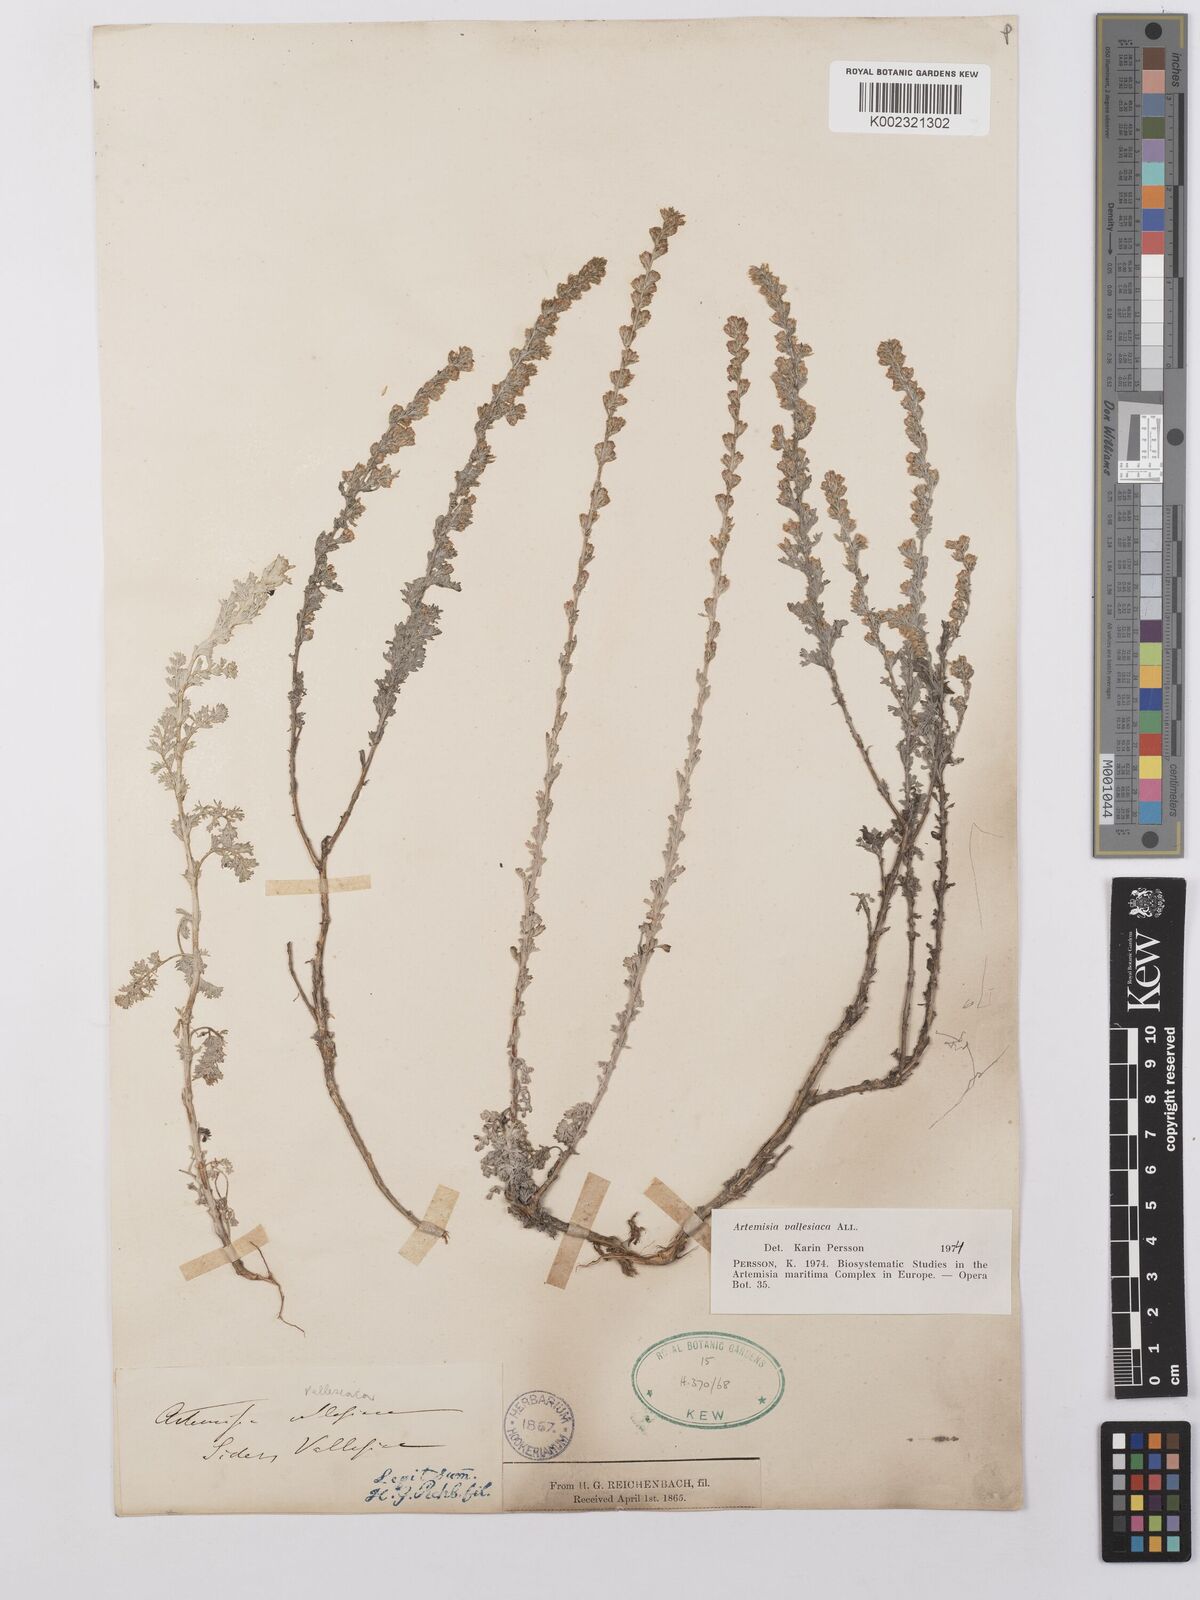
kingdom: Plantae
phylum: Tracheophyta
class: Magnoliopsida
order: Asterales
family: Asteraceae
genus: Artemisia
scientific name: Artemisia vallesiaca
